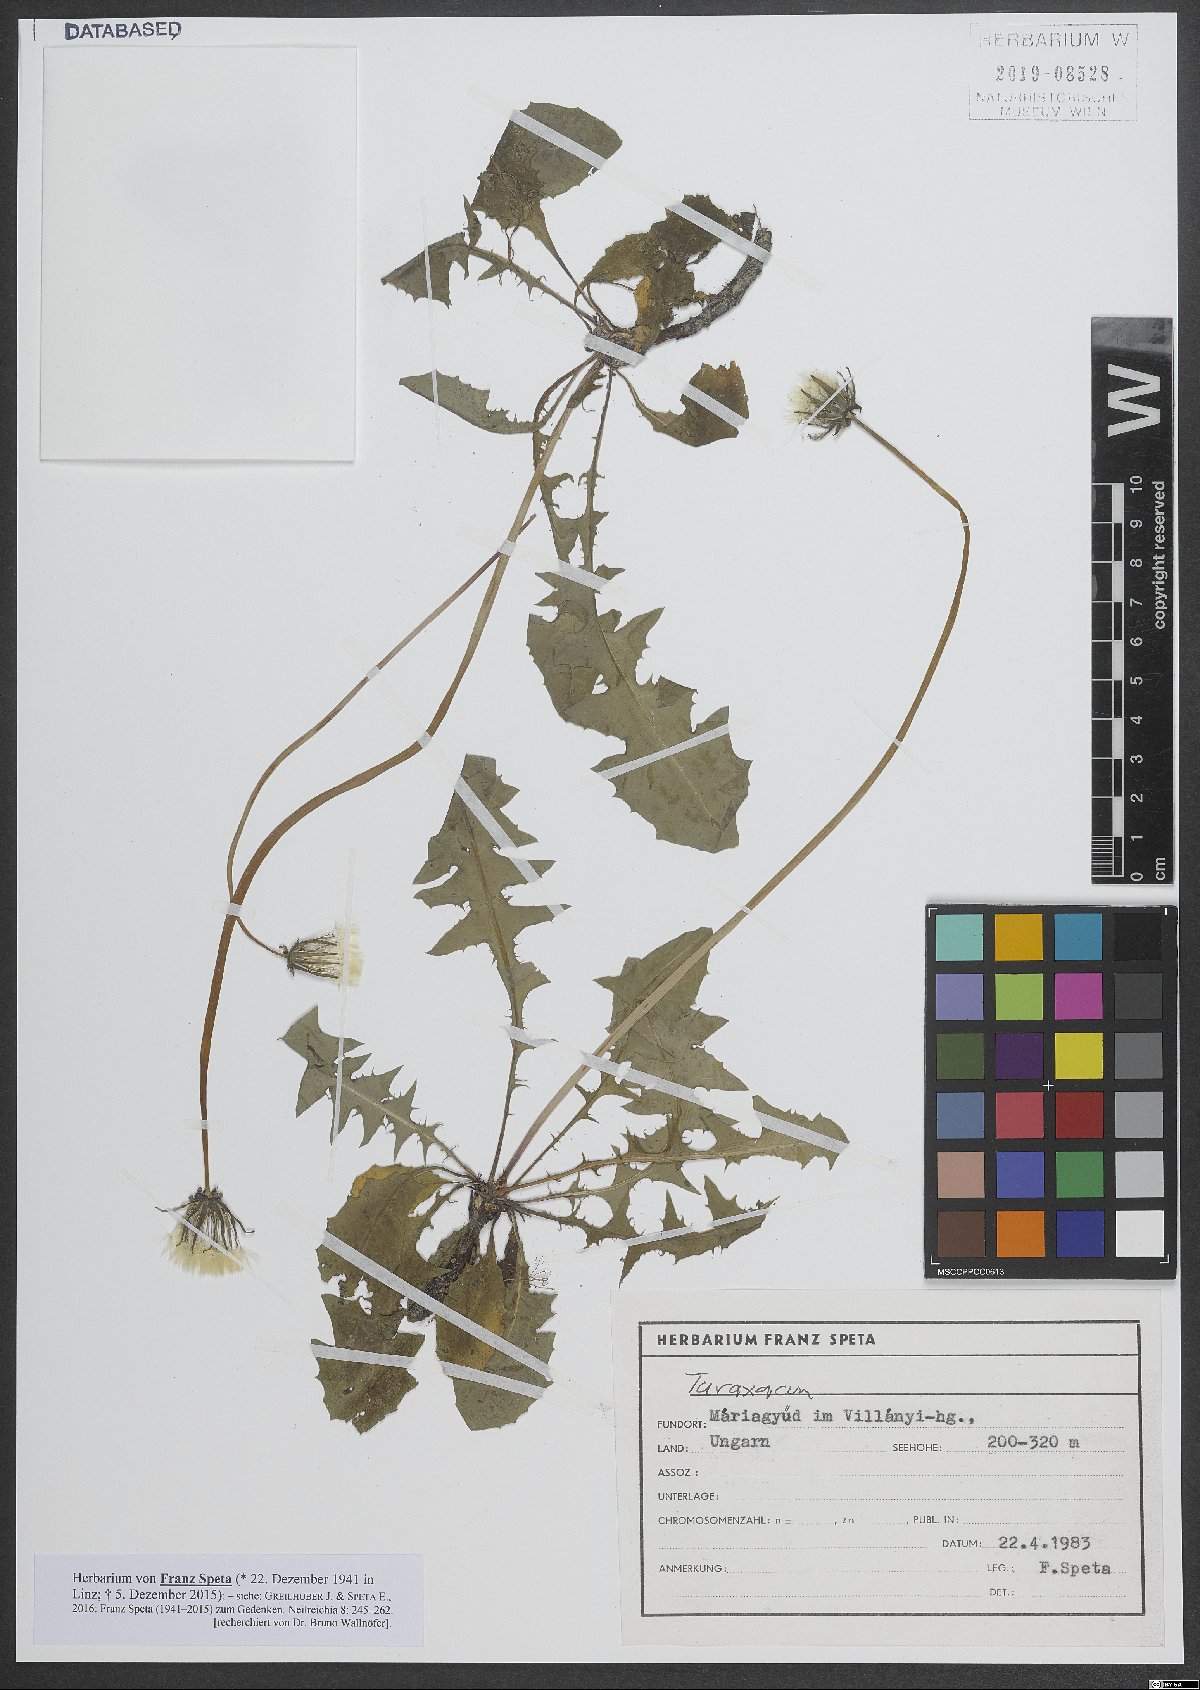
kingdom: Plantae
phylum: Tracheophyta
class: Magnoliopsida
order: Asterales
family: Asteraceae
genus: Taraxacum
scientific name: Taraxacum
